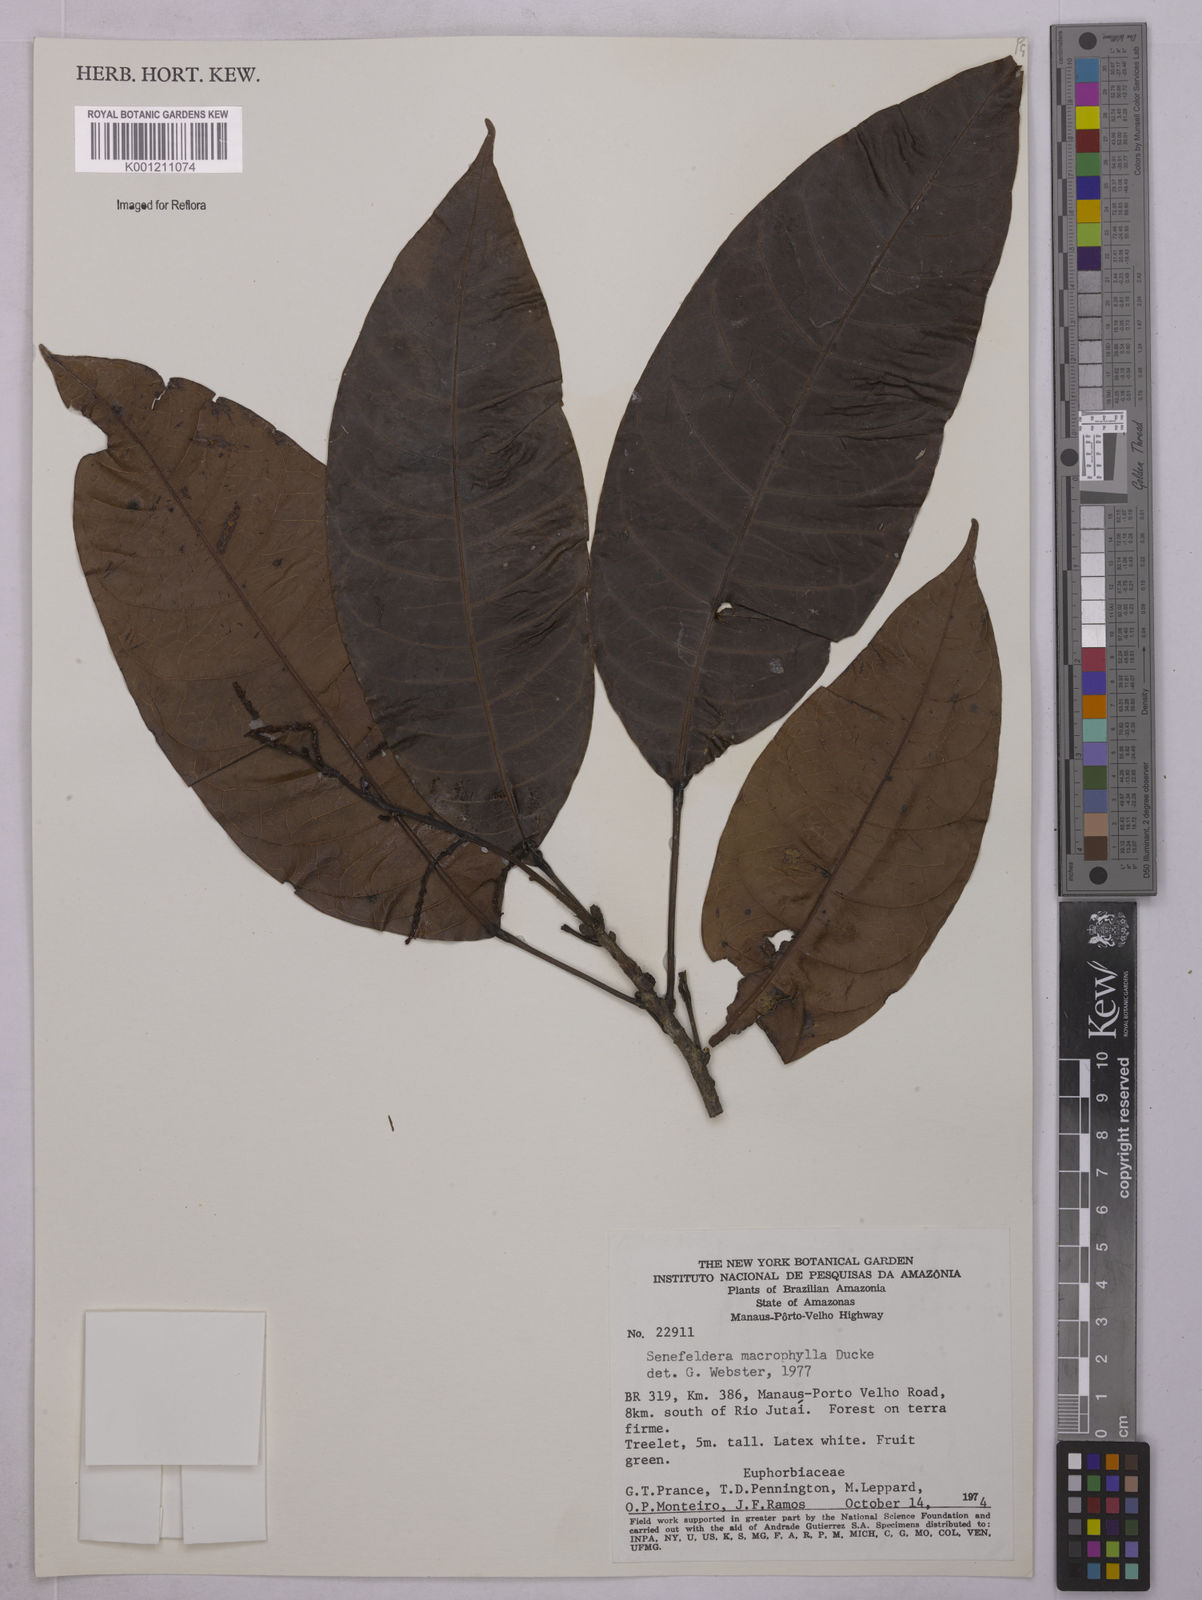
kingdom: Plantae
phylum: Tracheophyta
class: Magnoliopsida
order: Malpighiales
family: Euphorbiaceae
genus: Rhodothyrsus
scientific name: Rhodothyrsus macrophyllus
